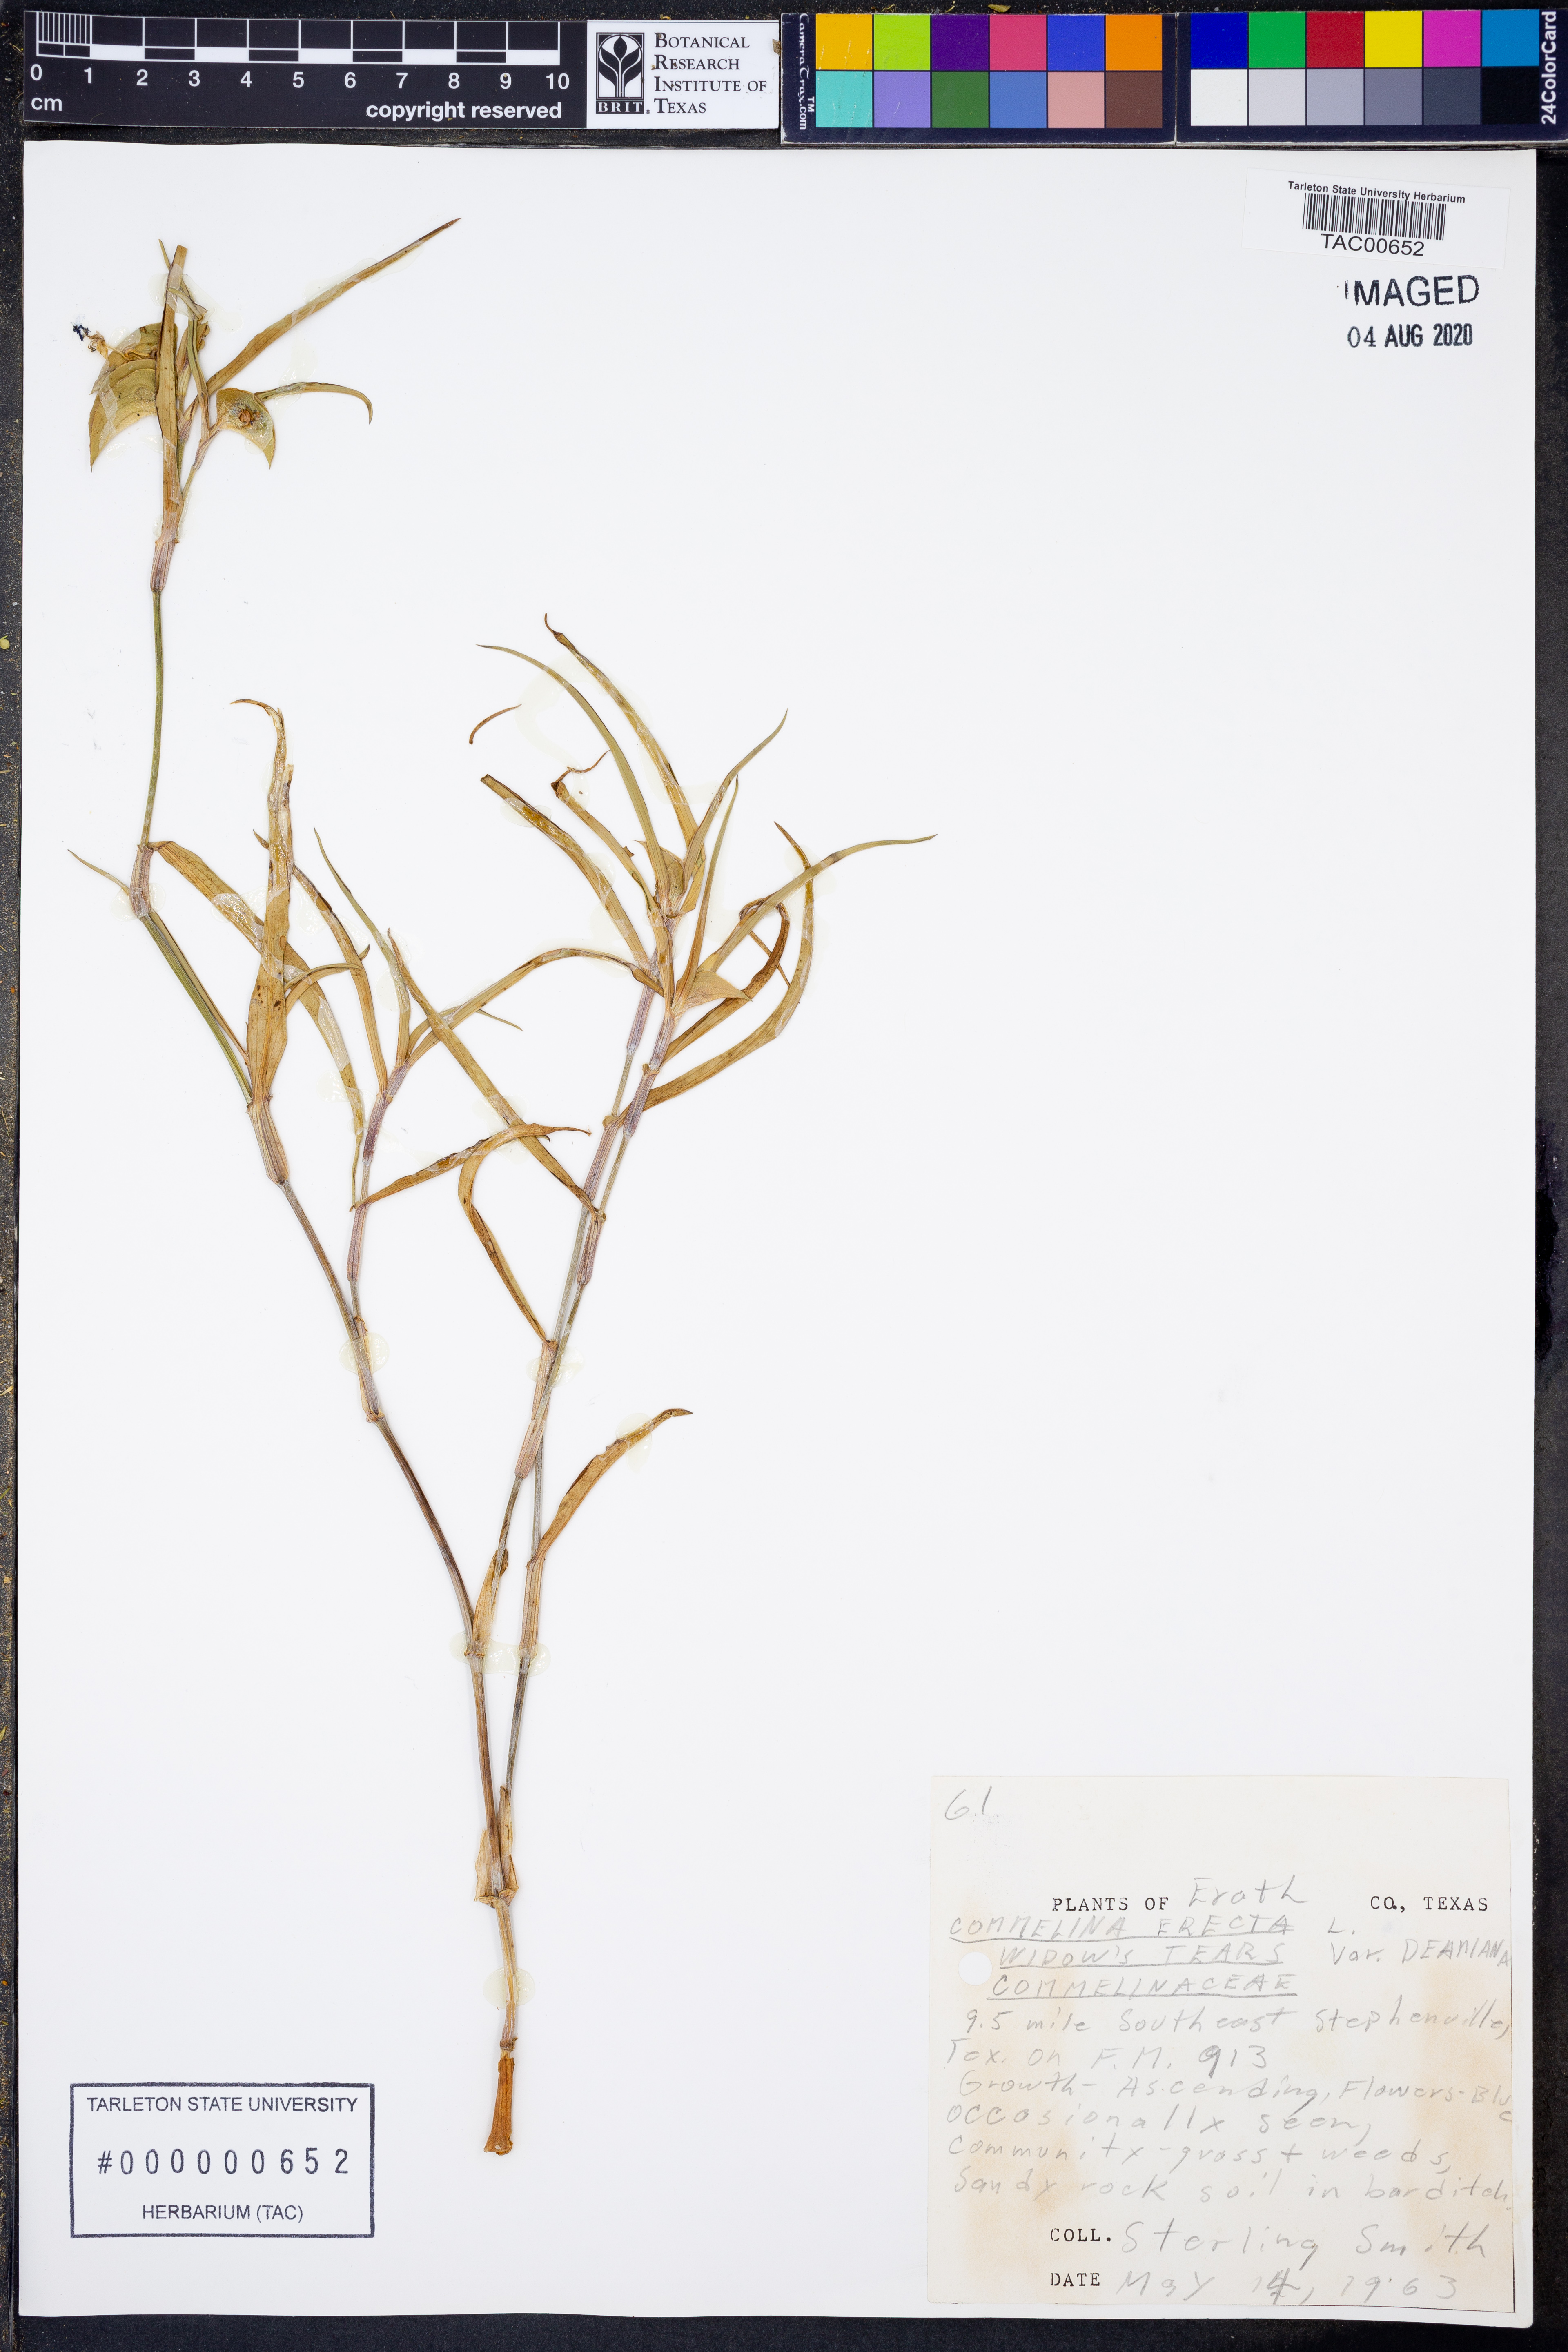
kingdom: Plantae
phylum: Tracheophyta
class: Liliopsida
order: Commelinales
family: Commelinaceae
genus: Commelina
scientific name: Commelina erecta
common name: Blousel blommetjie
